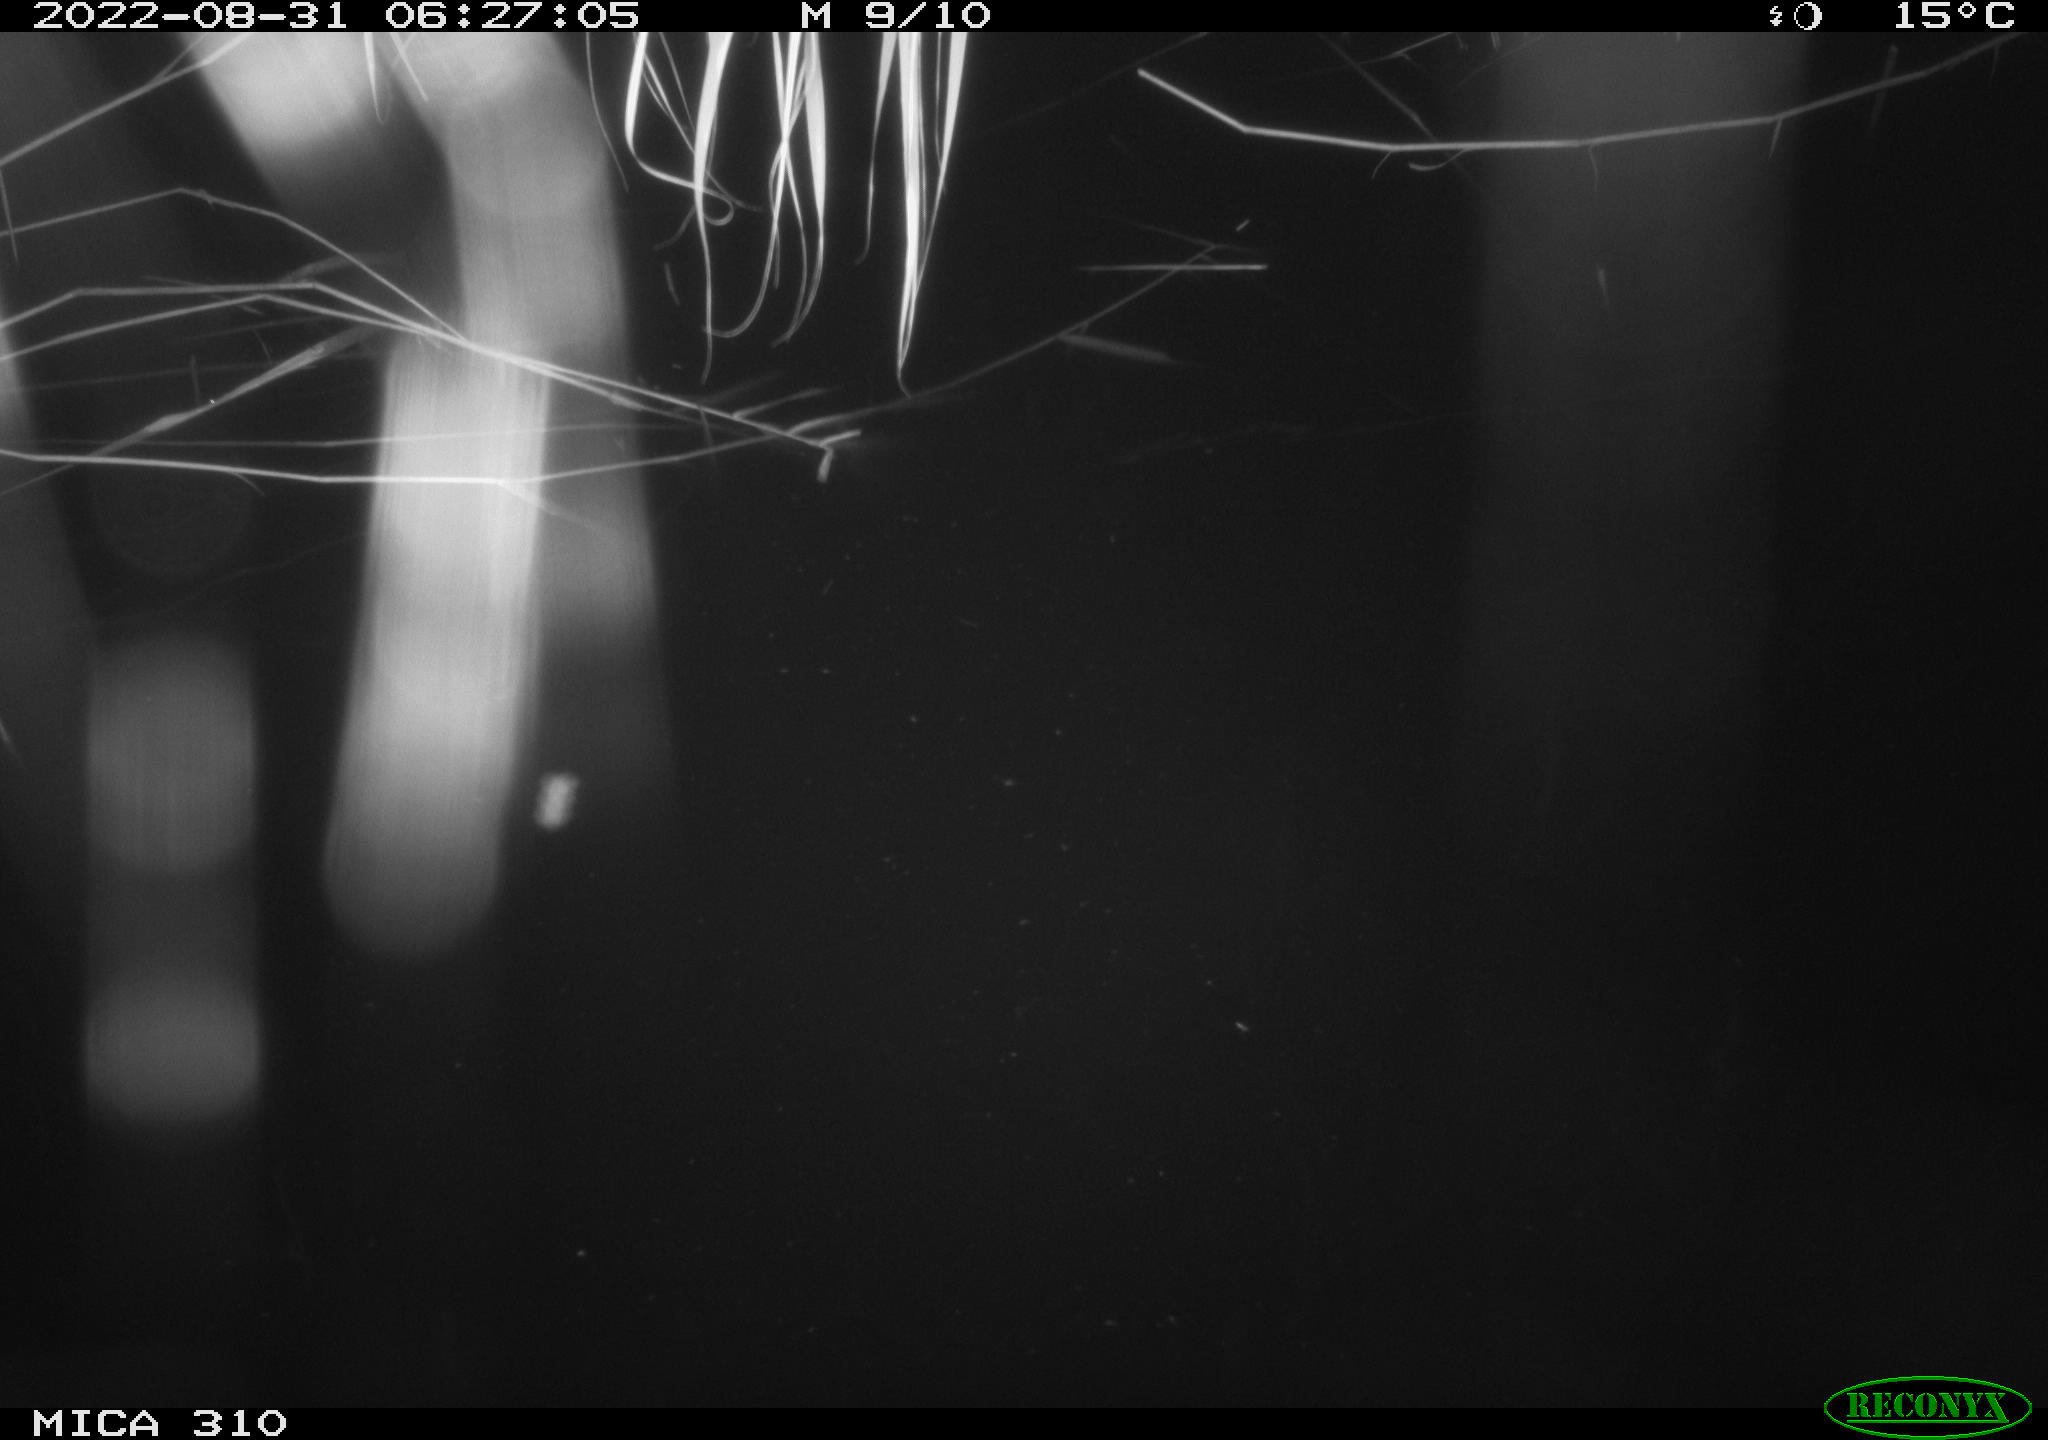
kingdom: Animalia
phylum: Chordata
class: Aves
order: Anseriformes
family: Anatidae
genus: Anas
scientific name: Anas platyrhynchos
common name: Mallard
